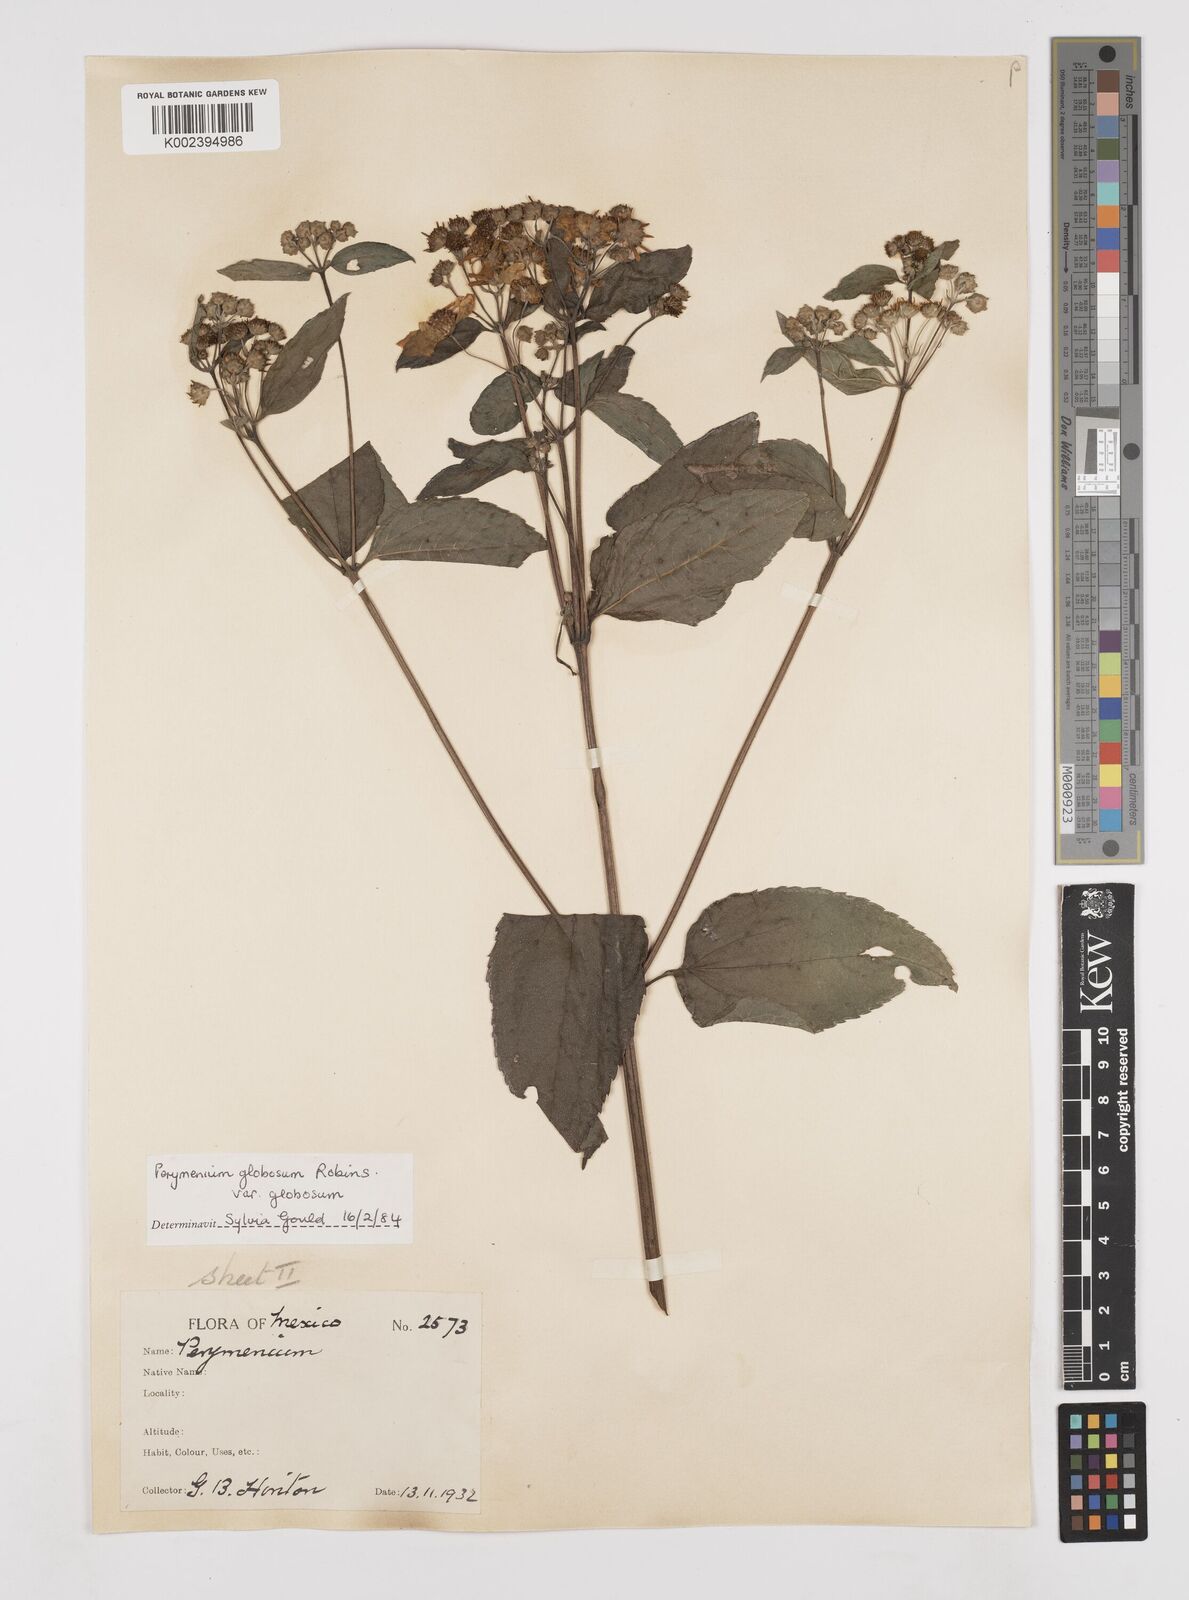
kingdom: Plantae
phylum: Tracheophyta
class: Magnoliopsida
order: Asterales
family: Asteraceae
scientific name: Asteraceae
